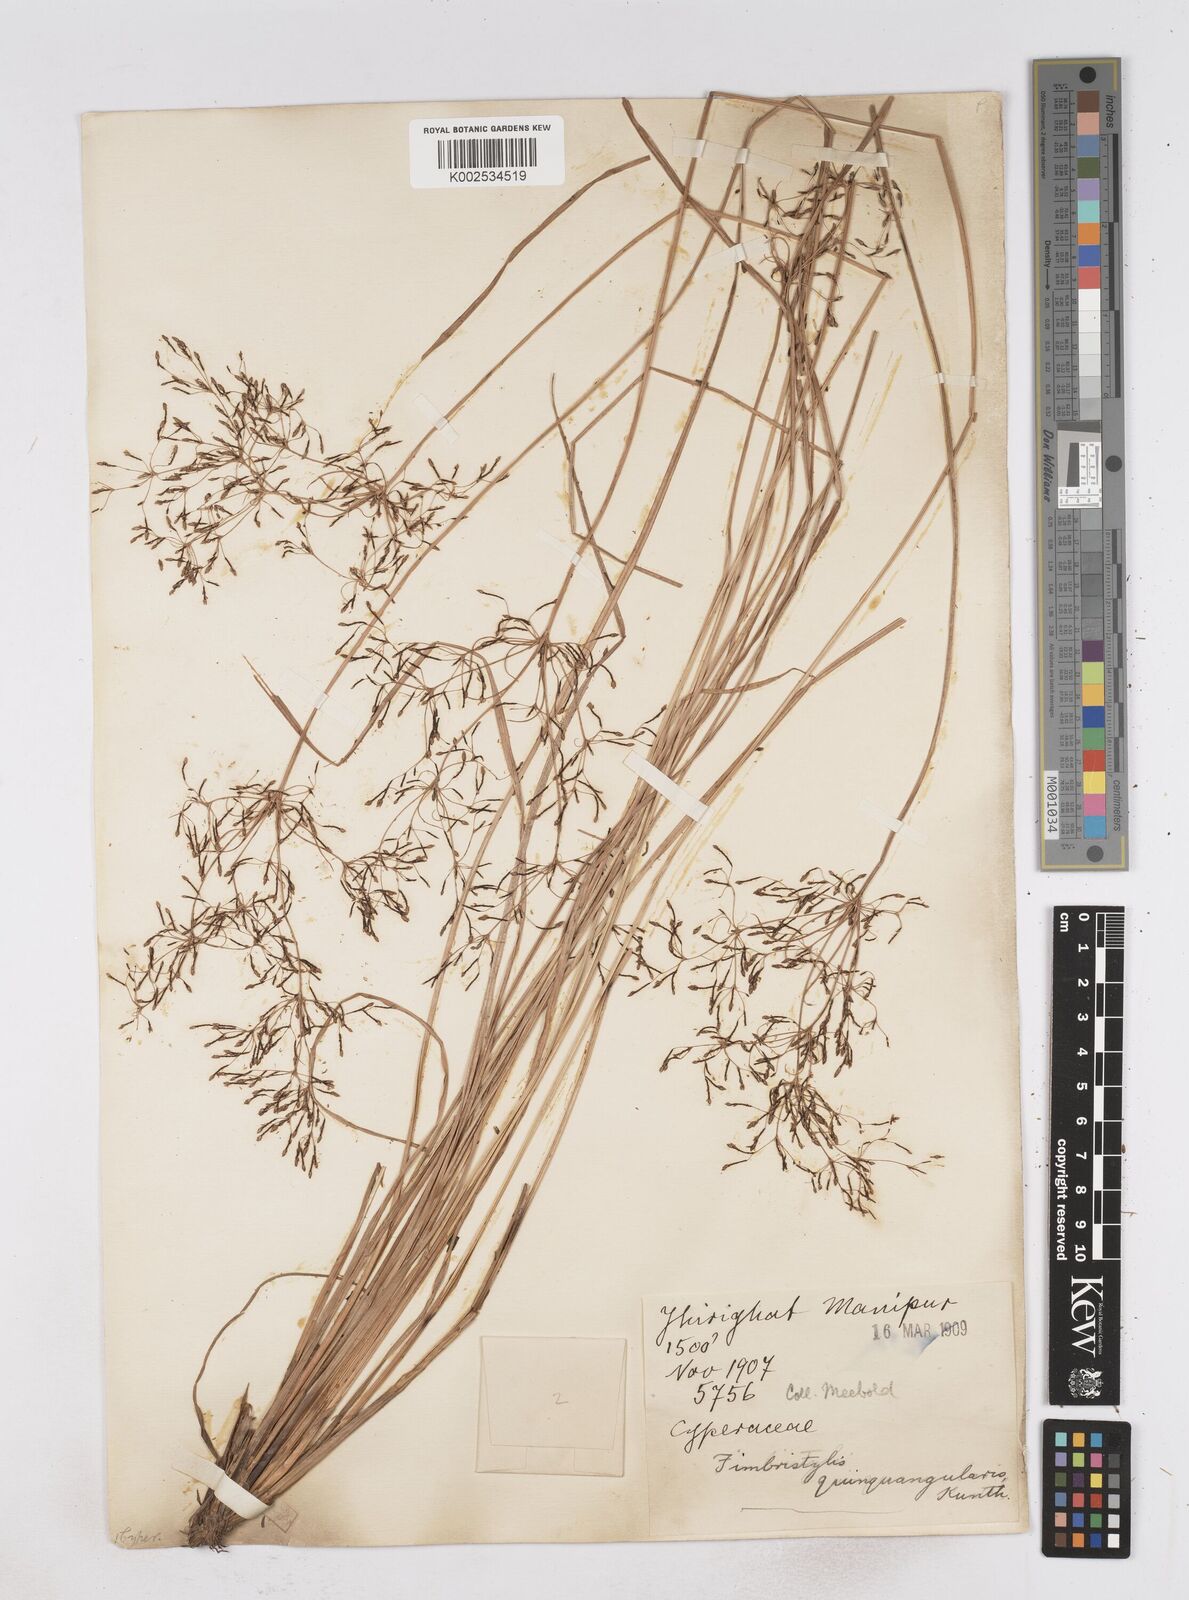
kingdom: Plantae
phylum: Tracheophyta
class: Liliopsida
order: Poales
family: Cyperaceae
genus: Fimbristylis
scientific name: Fimbristylis quinquangularis
